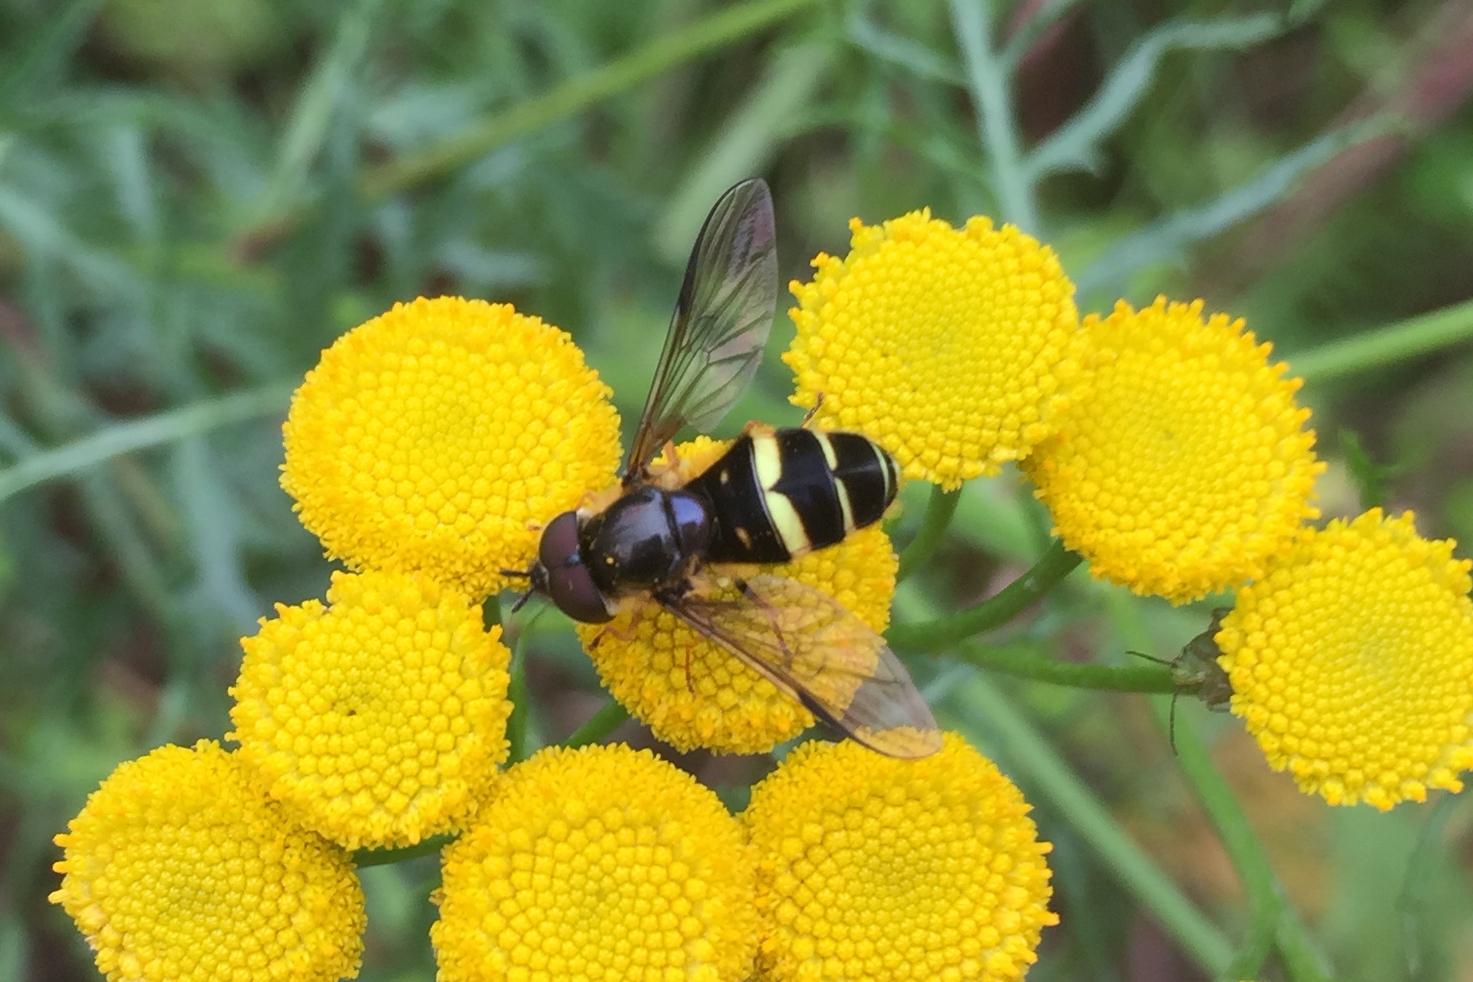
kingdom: Animalia
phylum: Arthropoda
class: Insecta
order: Diptera
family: Syrphidae
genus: Dasysyrphus
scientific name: Dasysyrphus tricinctus
